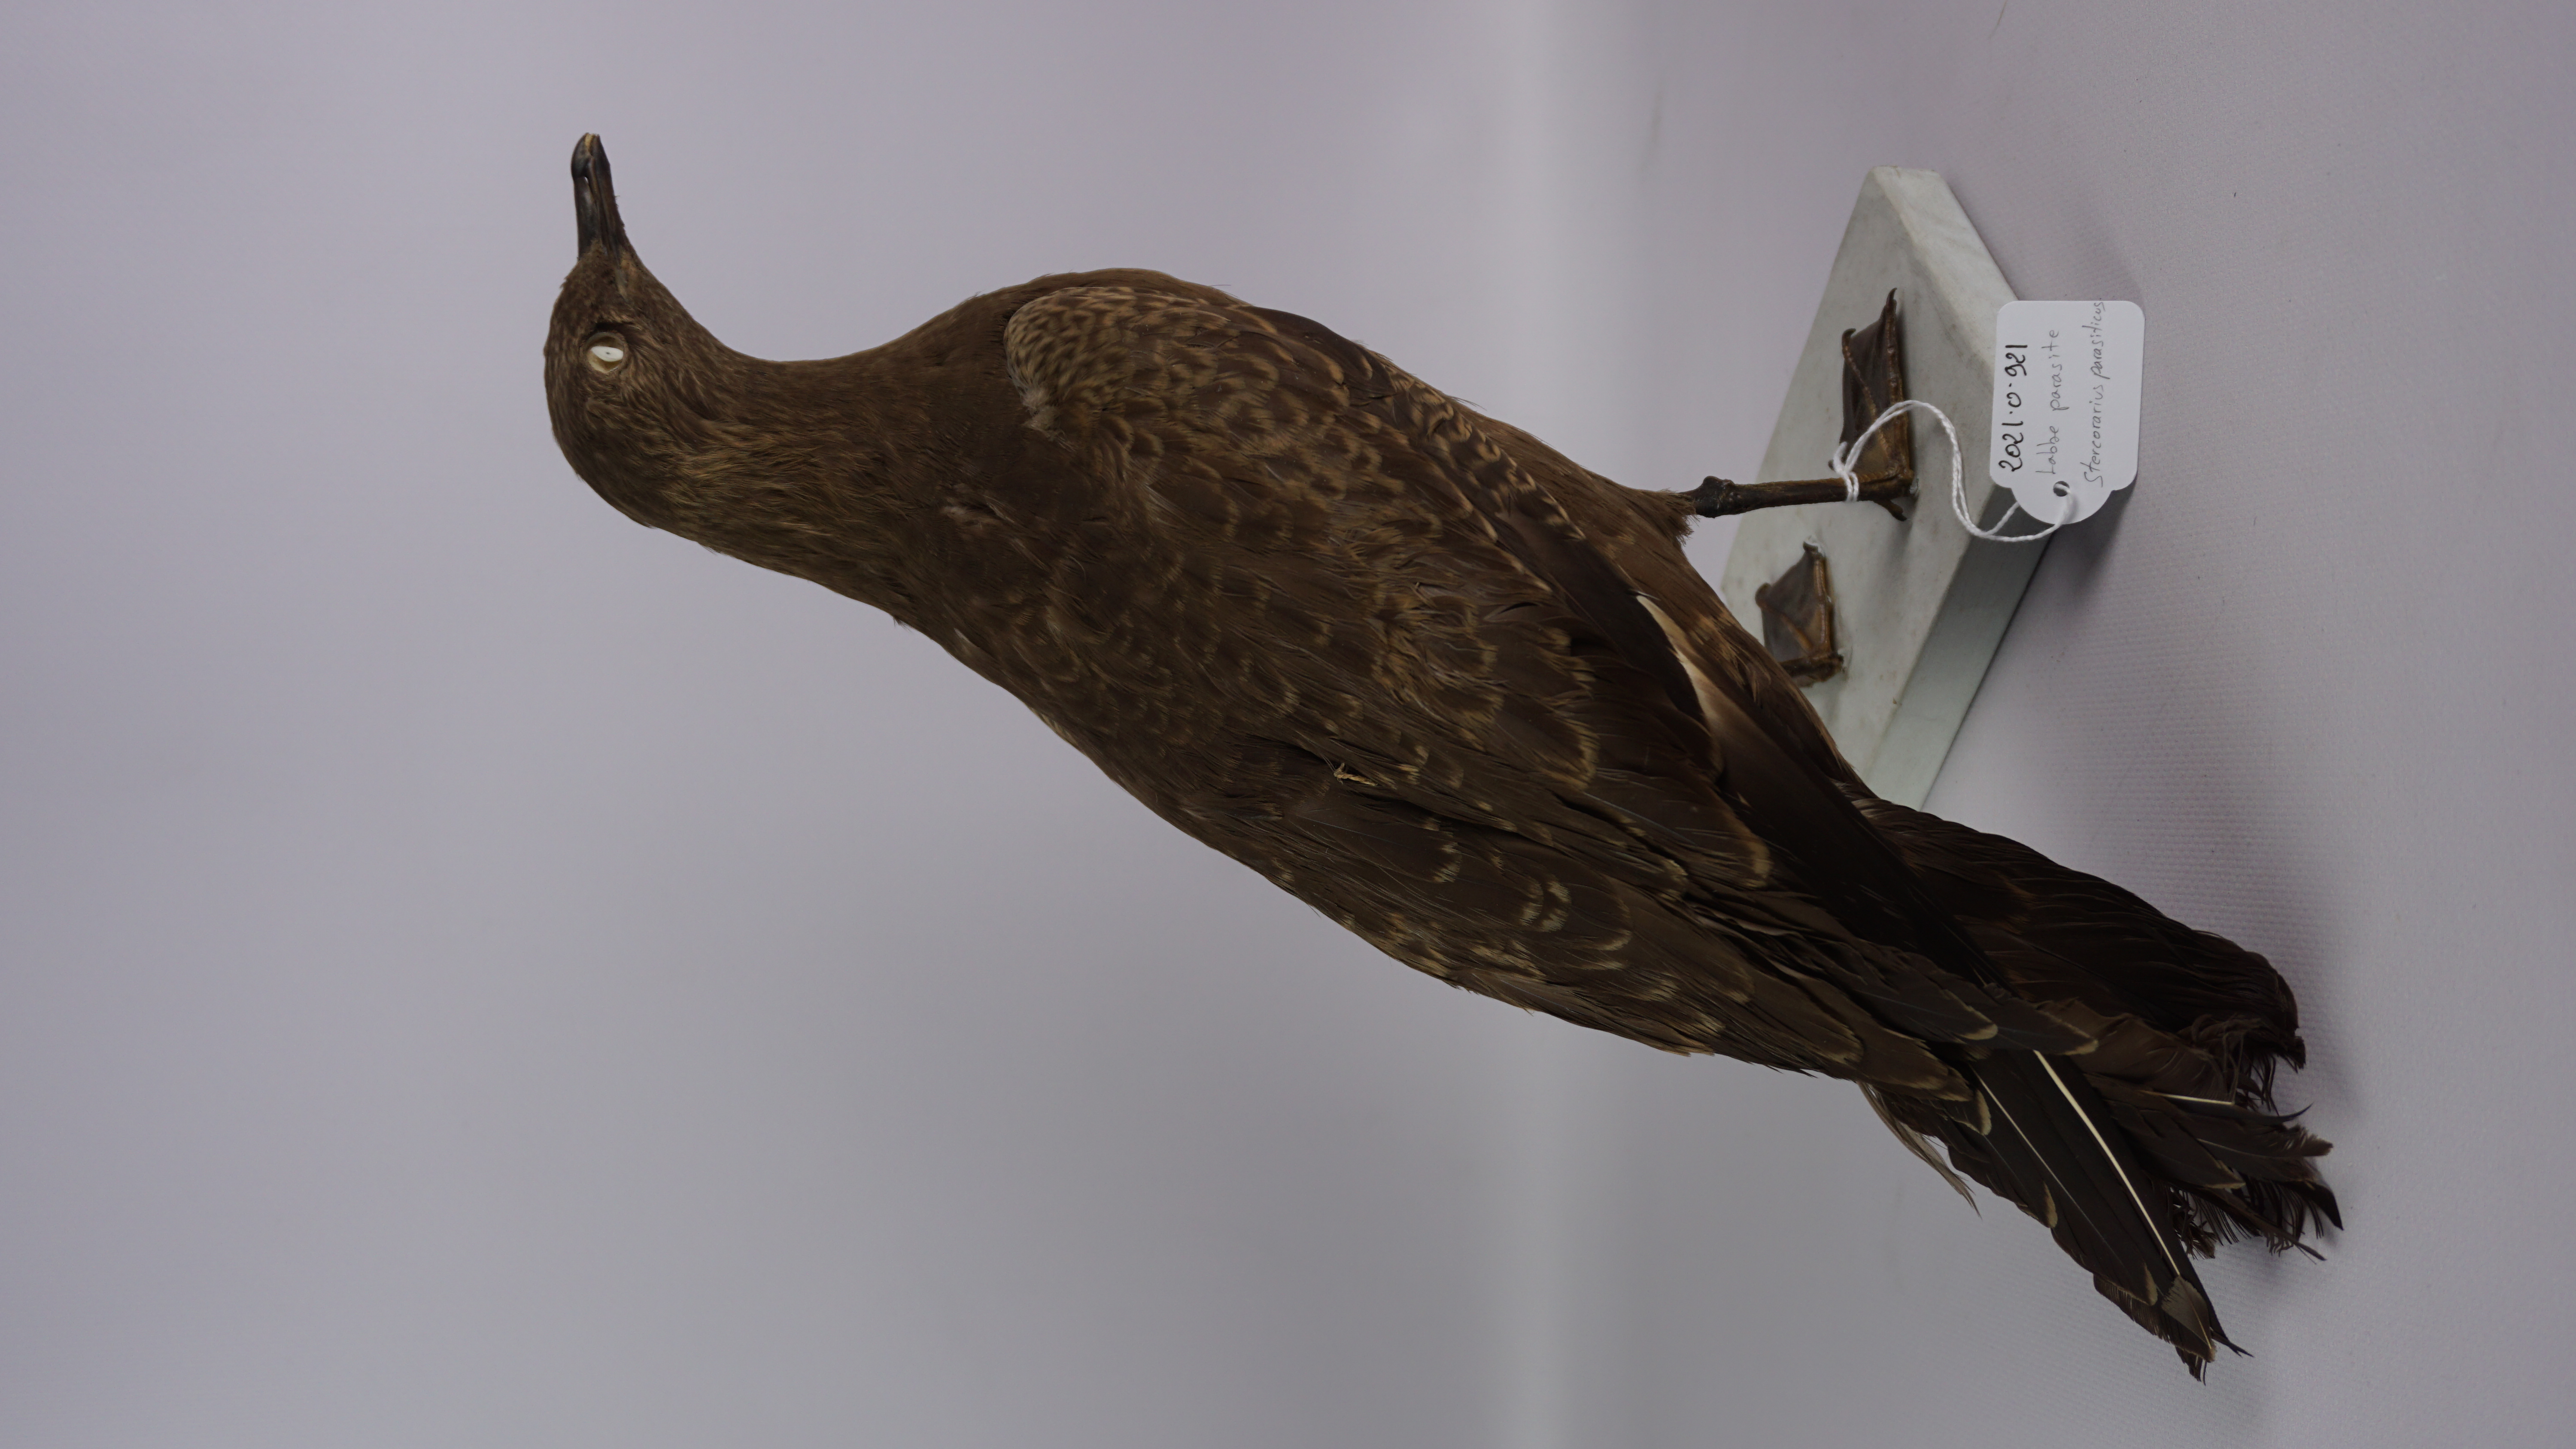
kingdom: Animalia
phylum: Chordata
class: Aves
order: Charadriiformes
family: Stercorariidae
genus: Stercorarius
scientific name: Stercorarius parasiticus
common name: Parasitic jaeger
